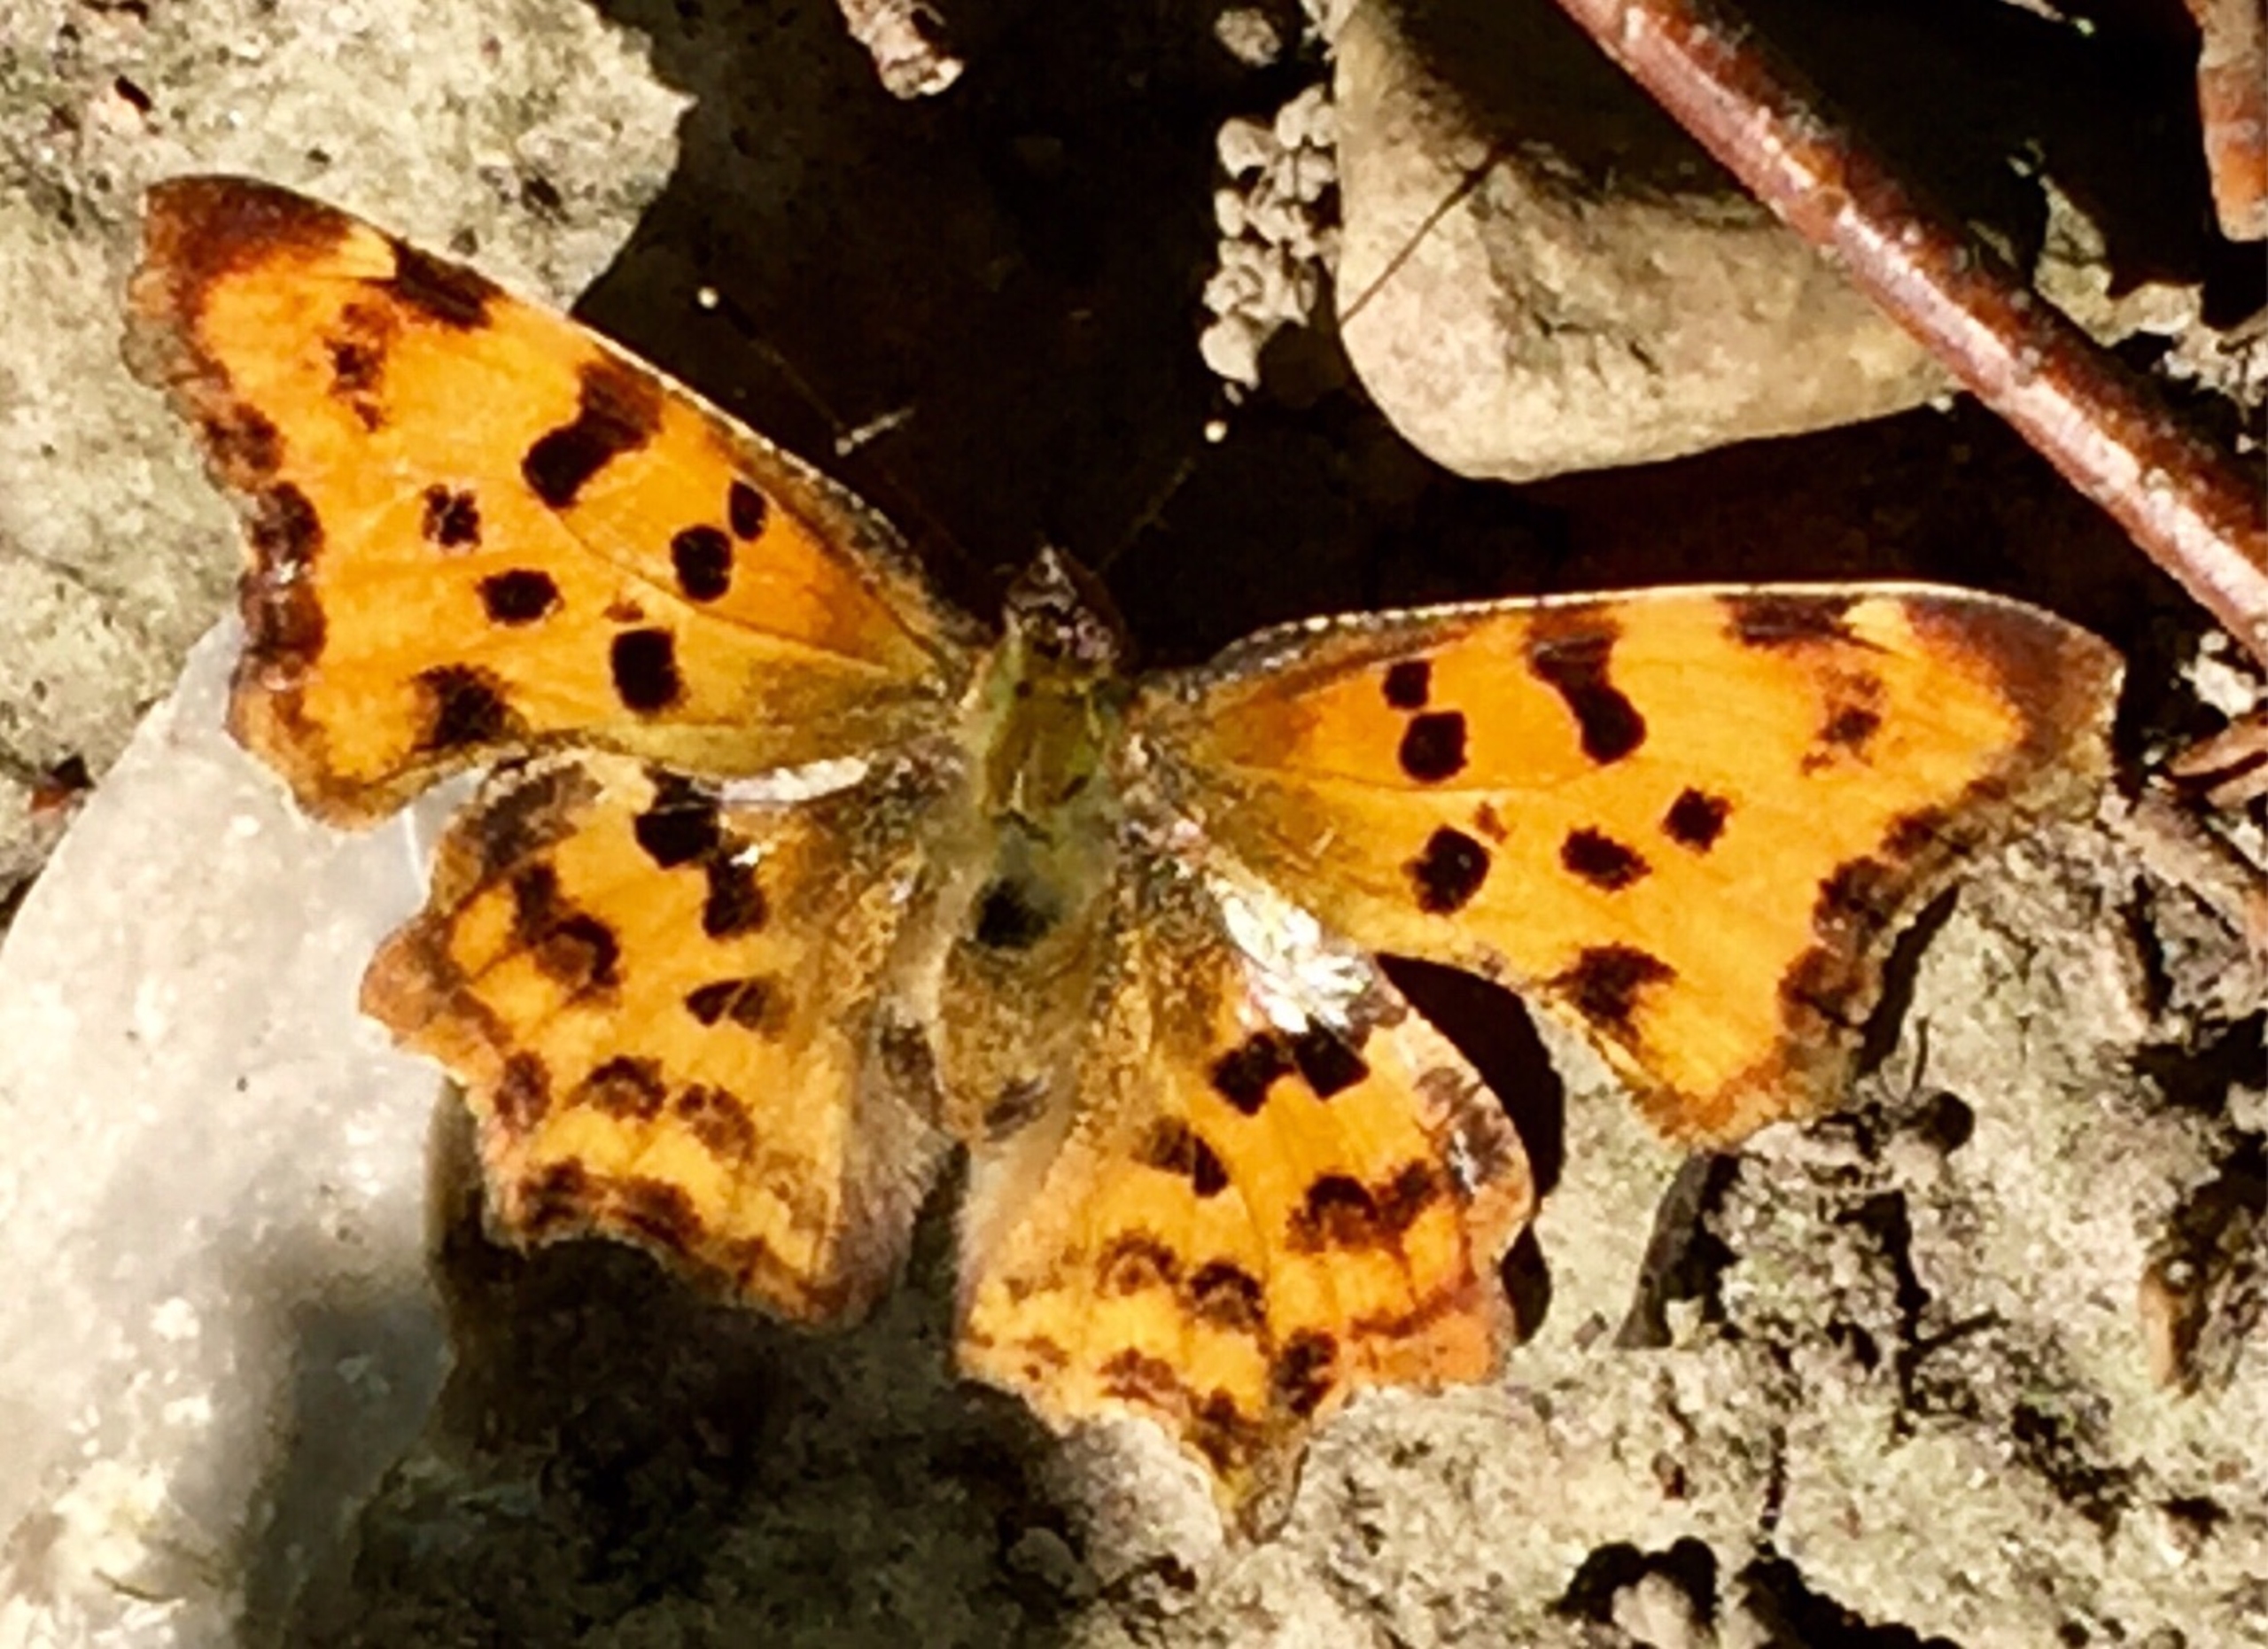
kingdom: Animalia
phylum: Arthropoda
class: Insecta
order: Lepidoptera
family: Nymphalidae
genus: Polygonia
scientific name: Polygonia c-album
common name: Det hvide C
